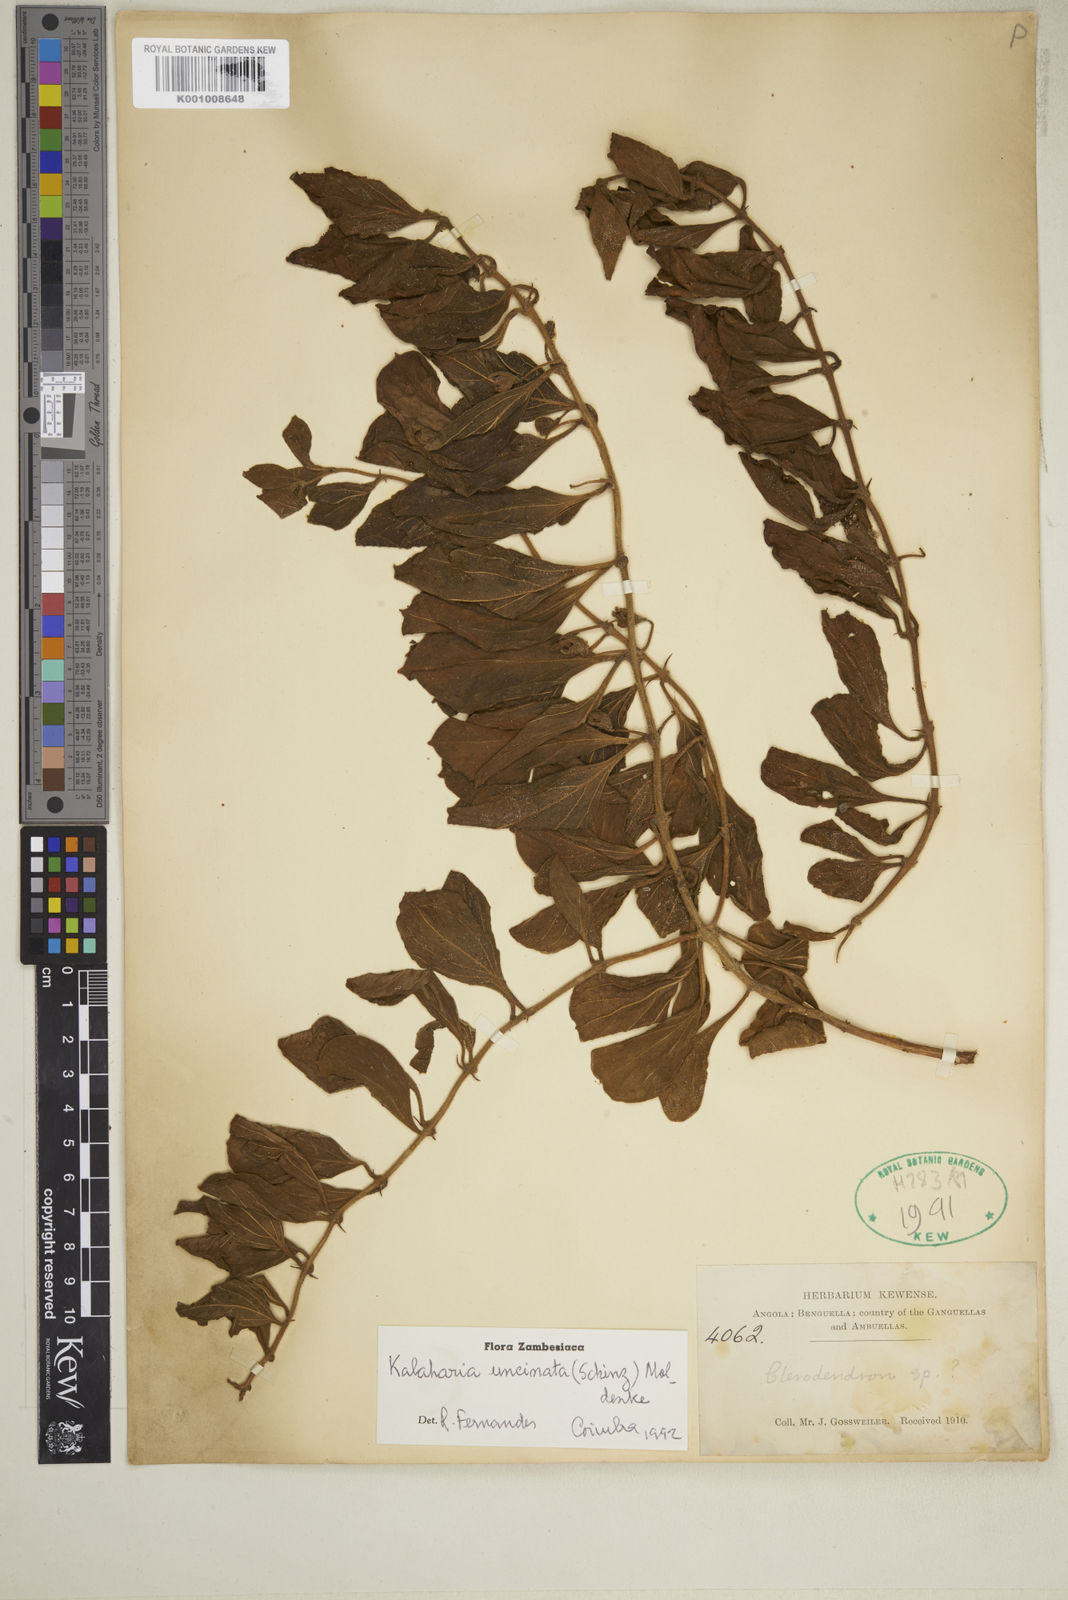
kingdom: Plantae
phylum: Tracheophyta
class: Magnoliopsida
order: Lamiales
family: Lamiaceae
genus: Kalaharia
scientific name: Kalaharia uncinata
